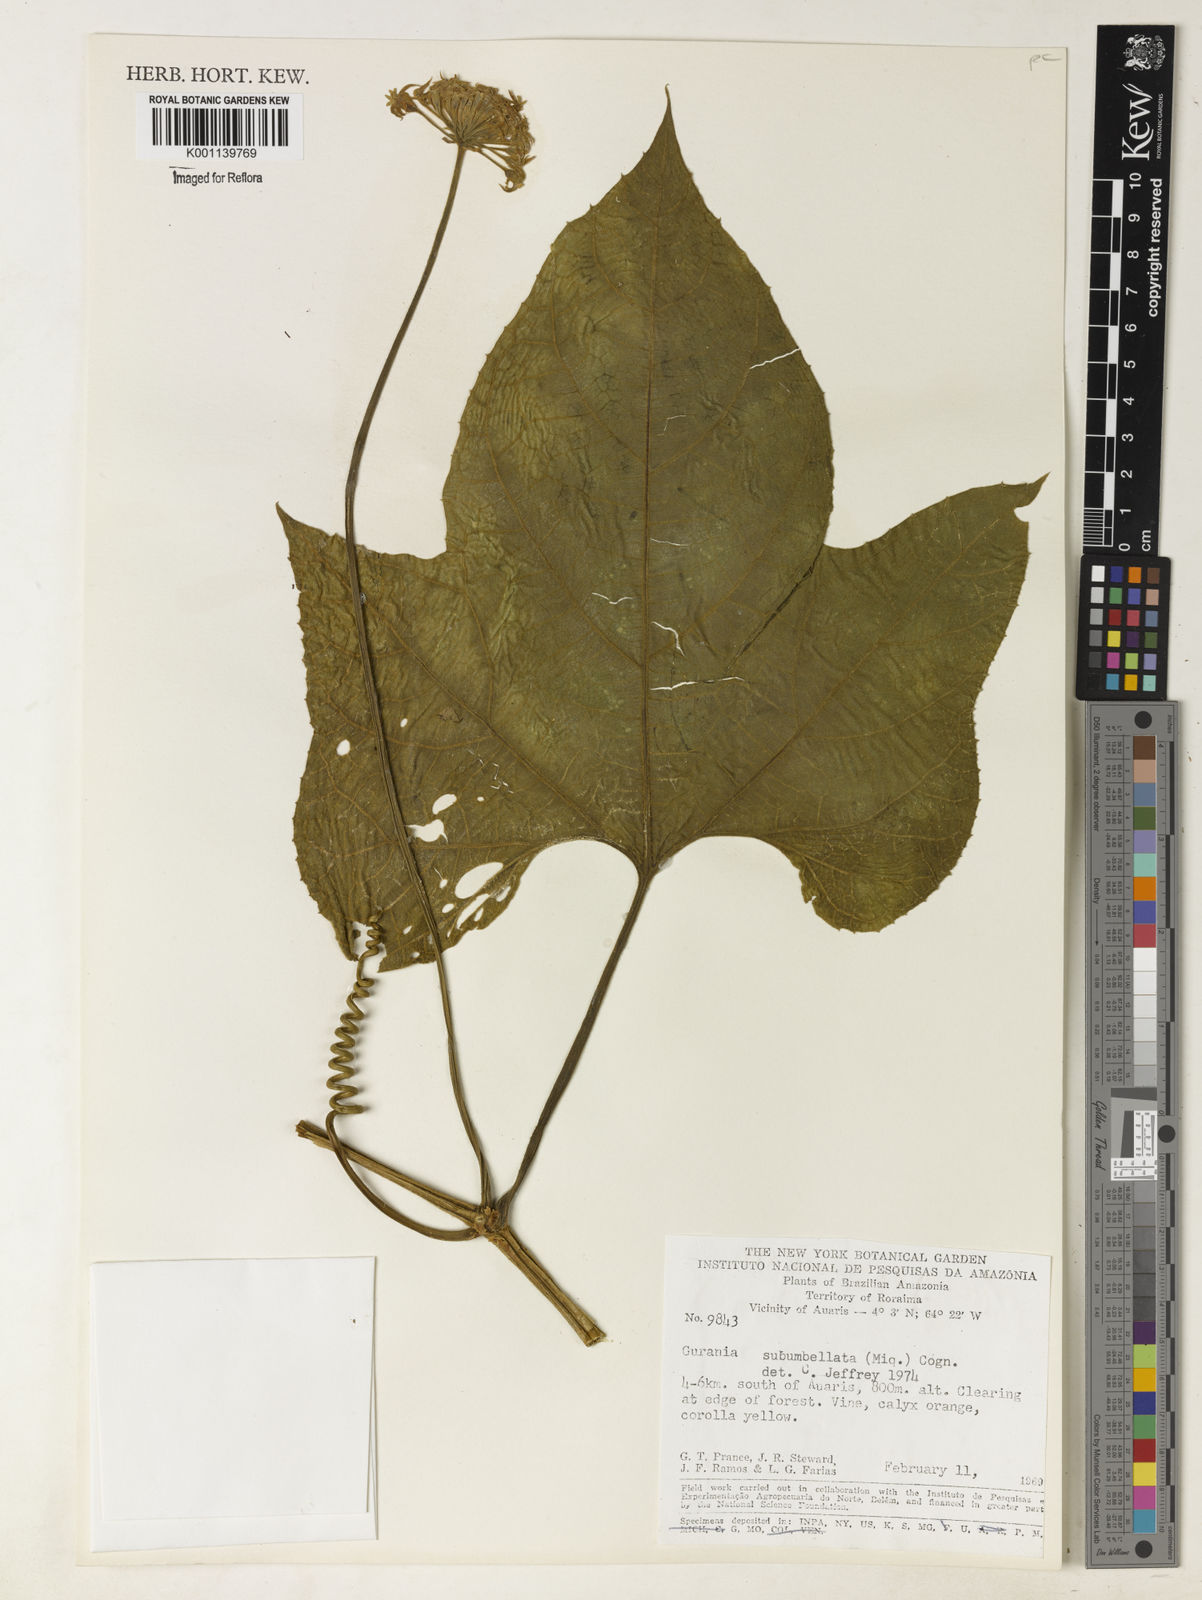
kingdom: Plantae
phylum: Tracheophyta
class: Magnoliopsida
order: Cucurbitales
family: Cucurbitaceae
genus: Gurania
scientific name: Gurania subumbellata
